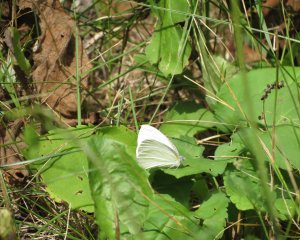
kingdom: Animalia
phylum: Arthropoda
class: Insecta
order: Lepidoptera
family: Pieridae
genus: Pieris
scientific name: Pieris oleracea
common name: Mustard White
